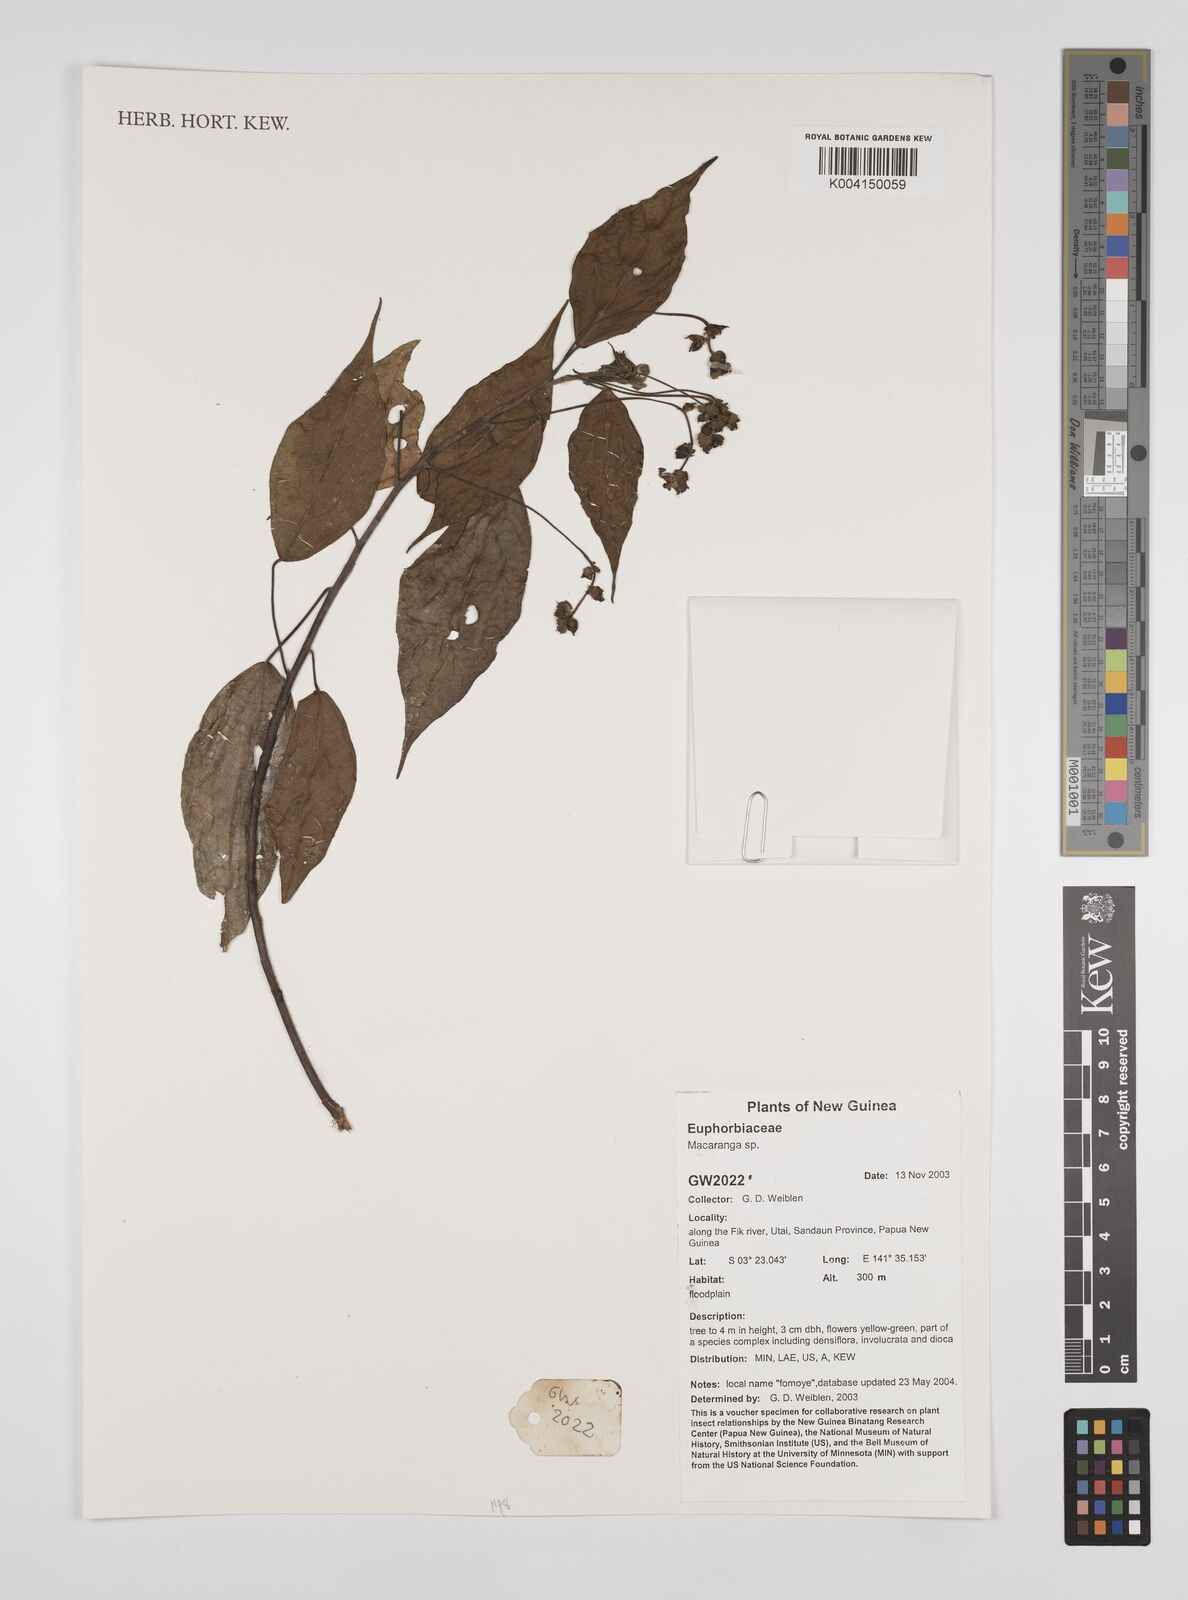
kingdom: Plantae
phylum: Tracheophyta
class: Magnoliopsida
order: Malpighiales
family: Euphorbiaceae
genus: Macaranga
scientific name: Macaranga
